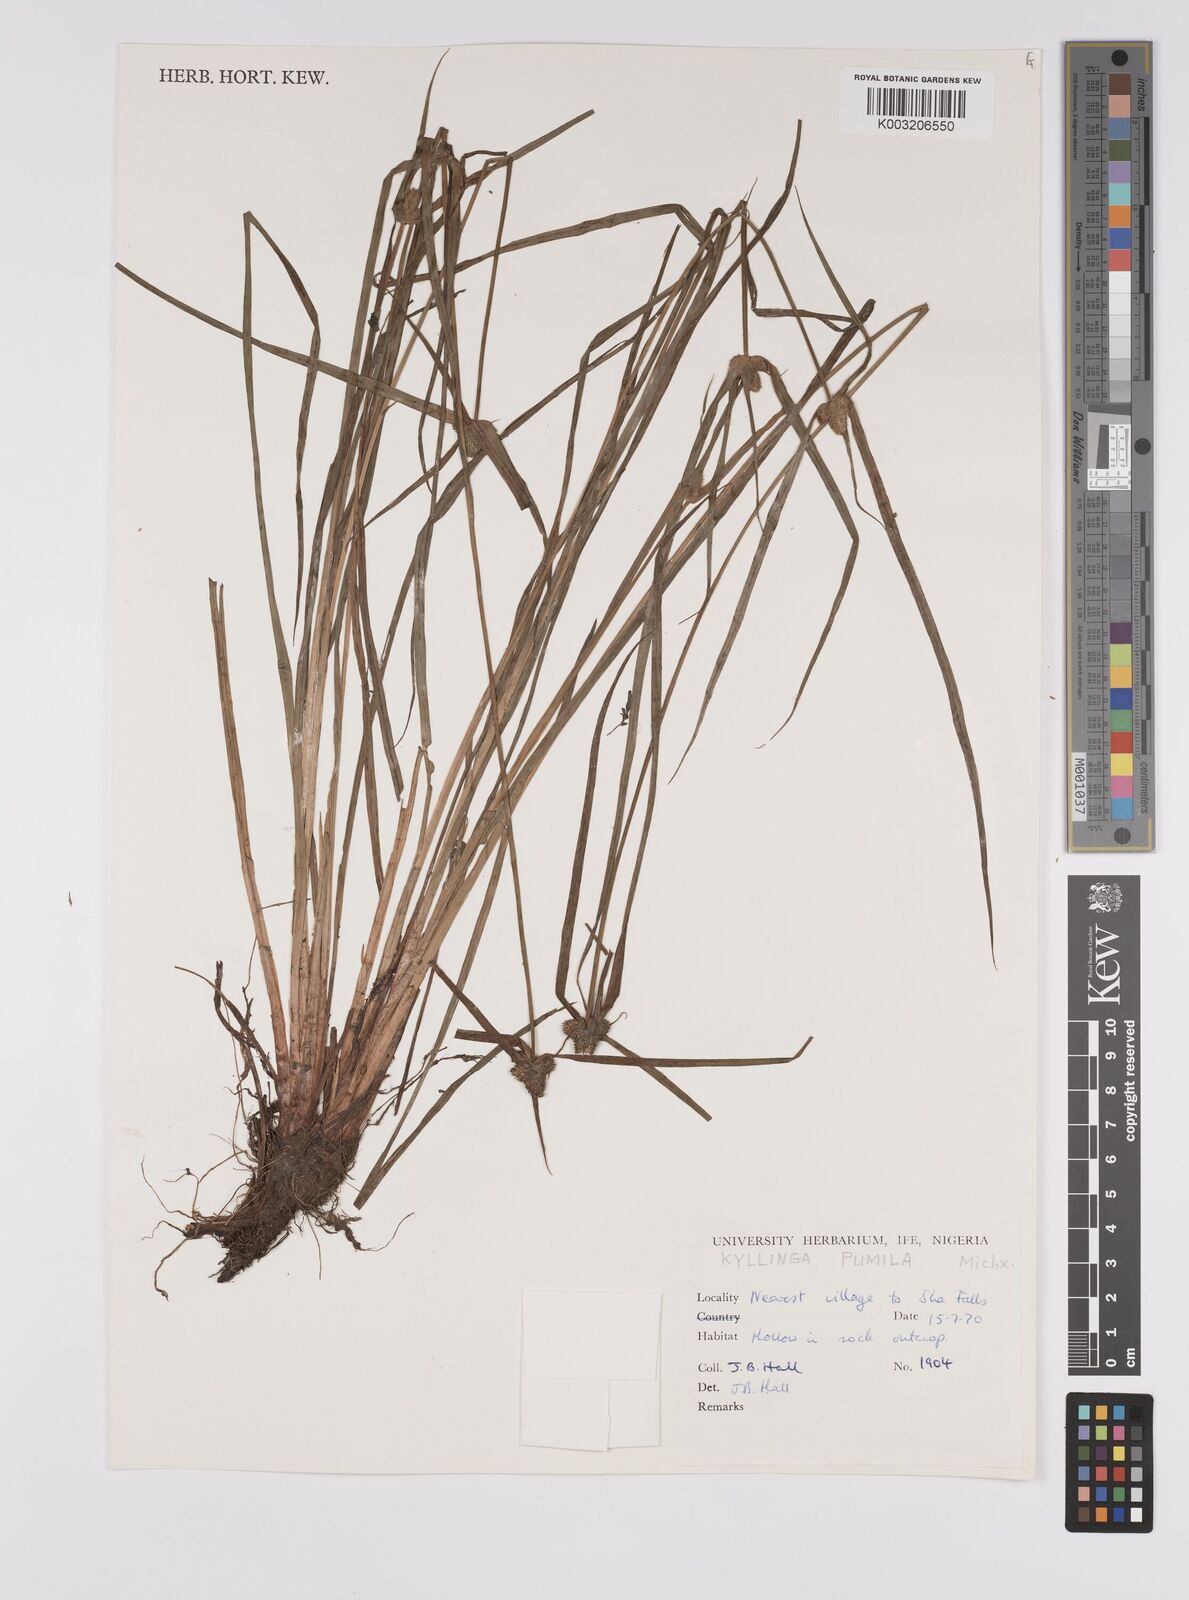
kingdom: Plantae
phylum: Tracheophyta
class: Liliopsida
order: Poales
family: Cyperaceae
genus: Cyperus
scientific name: Cyperus
